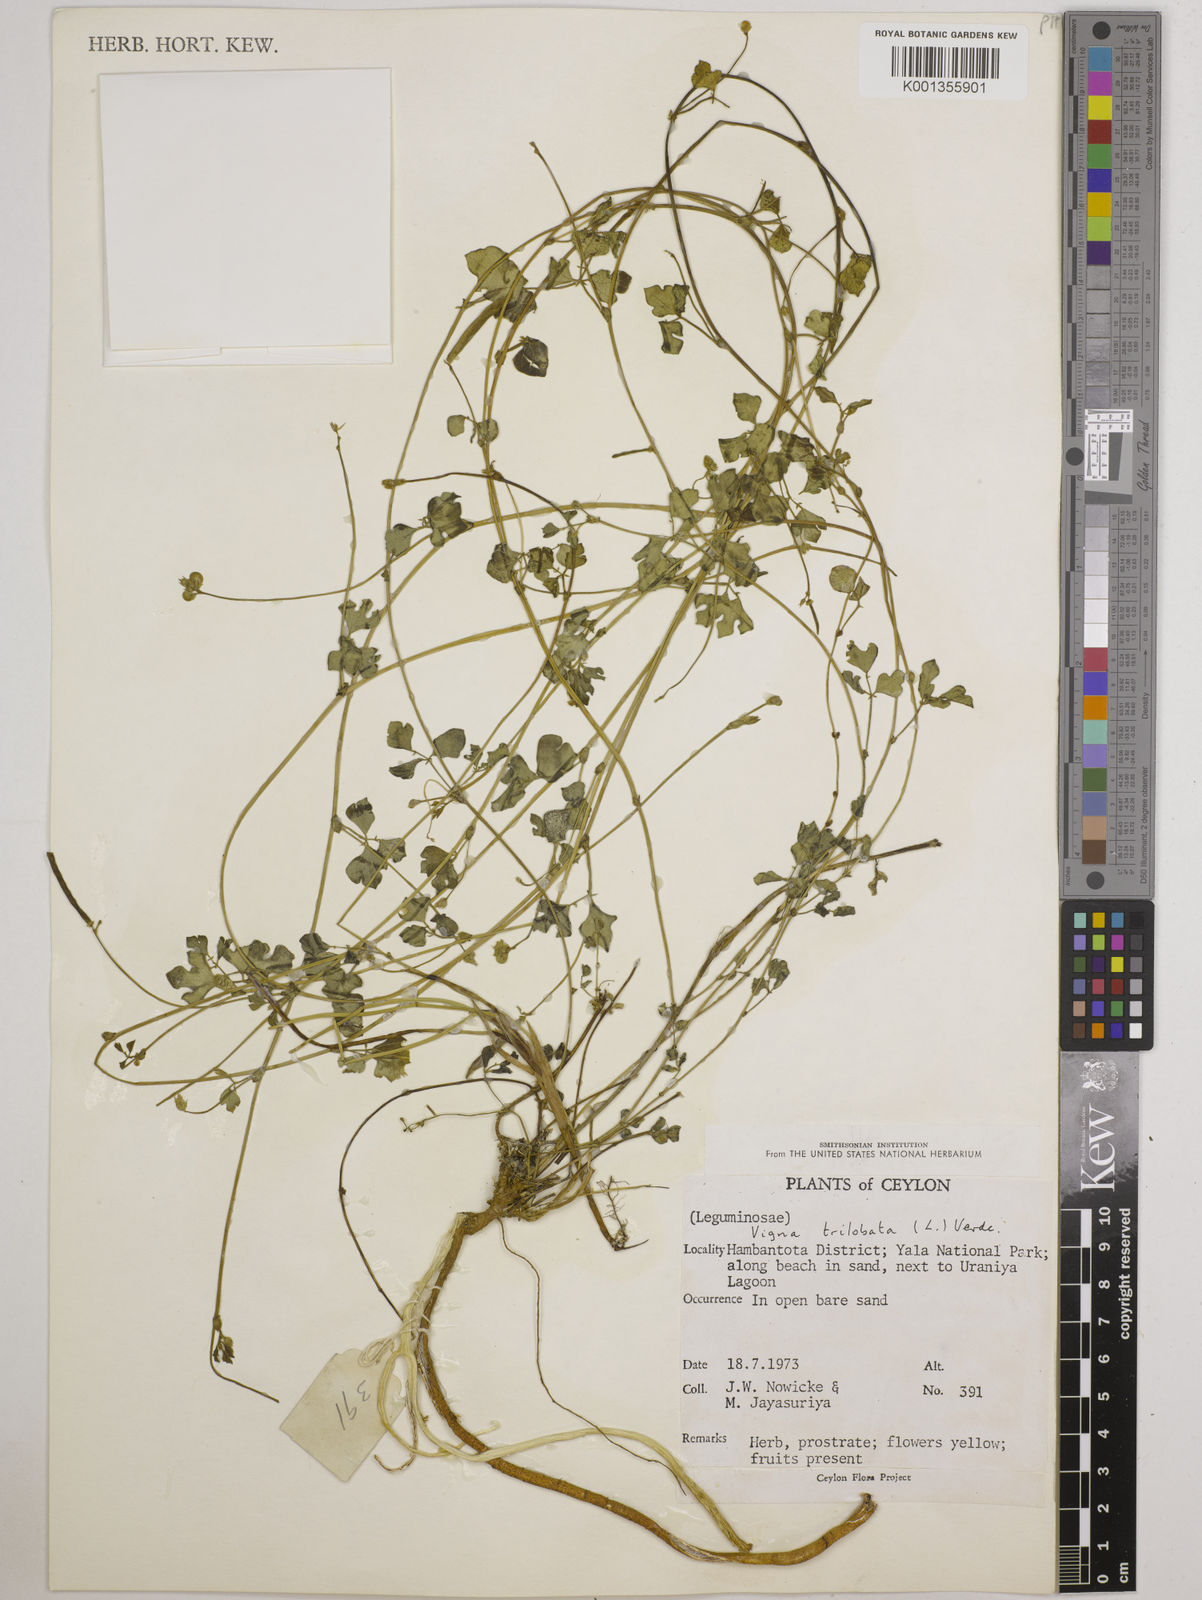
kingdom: Plantae
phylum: Tracheophyta
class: Magnoliopsida
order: Fabales
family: Fabaceae
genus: Vigna
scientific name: Vigna trilobata
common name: Jungli-bean
